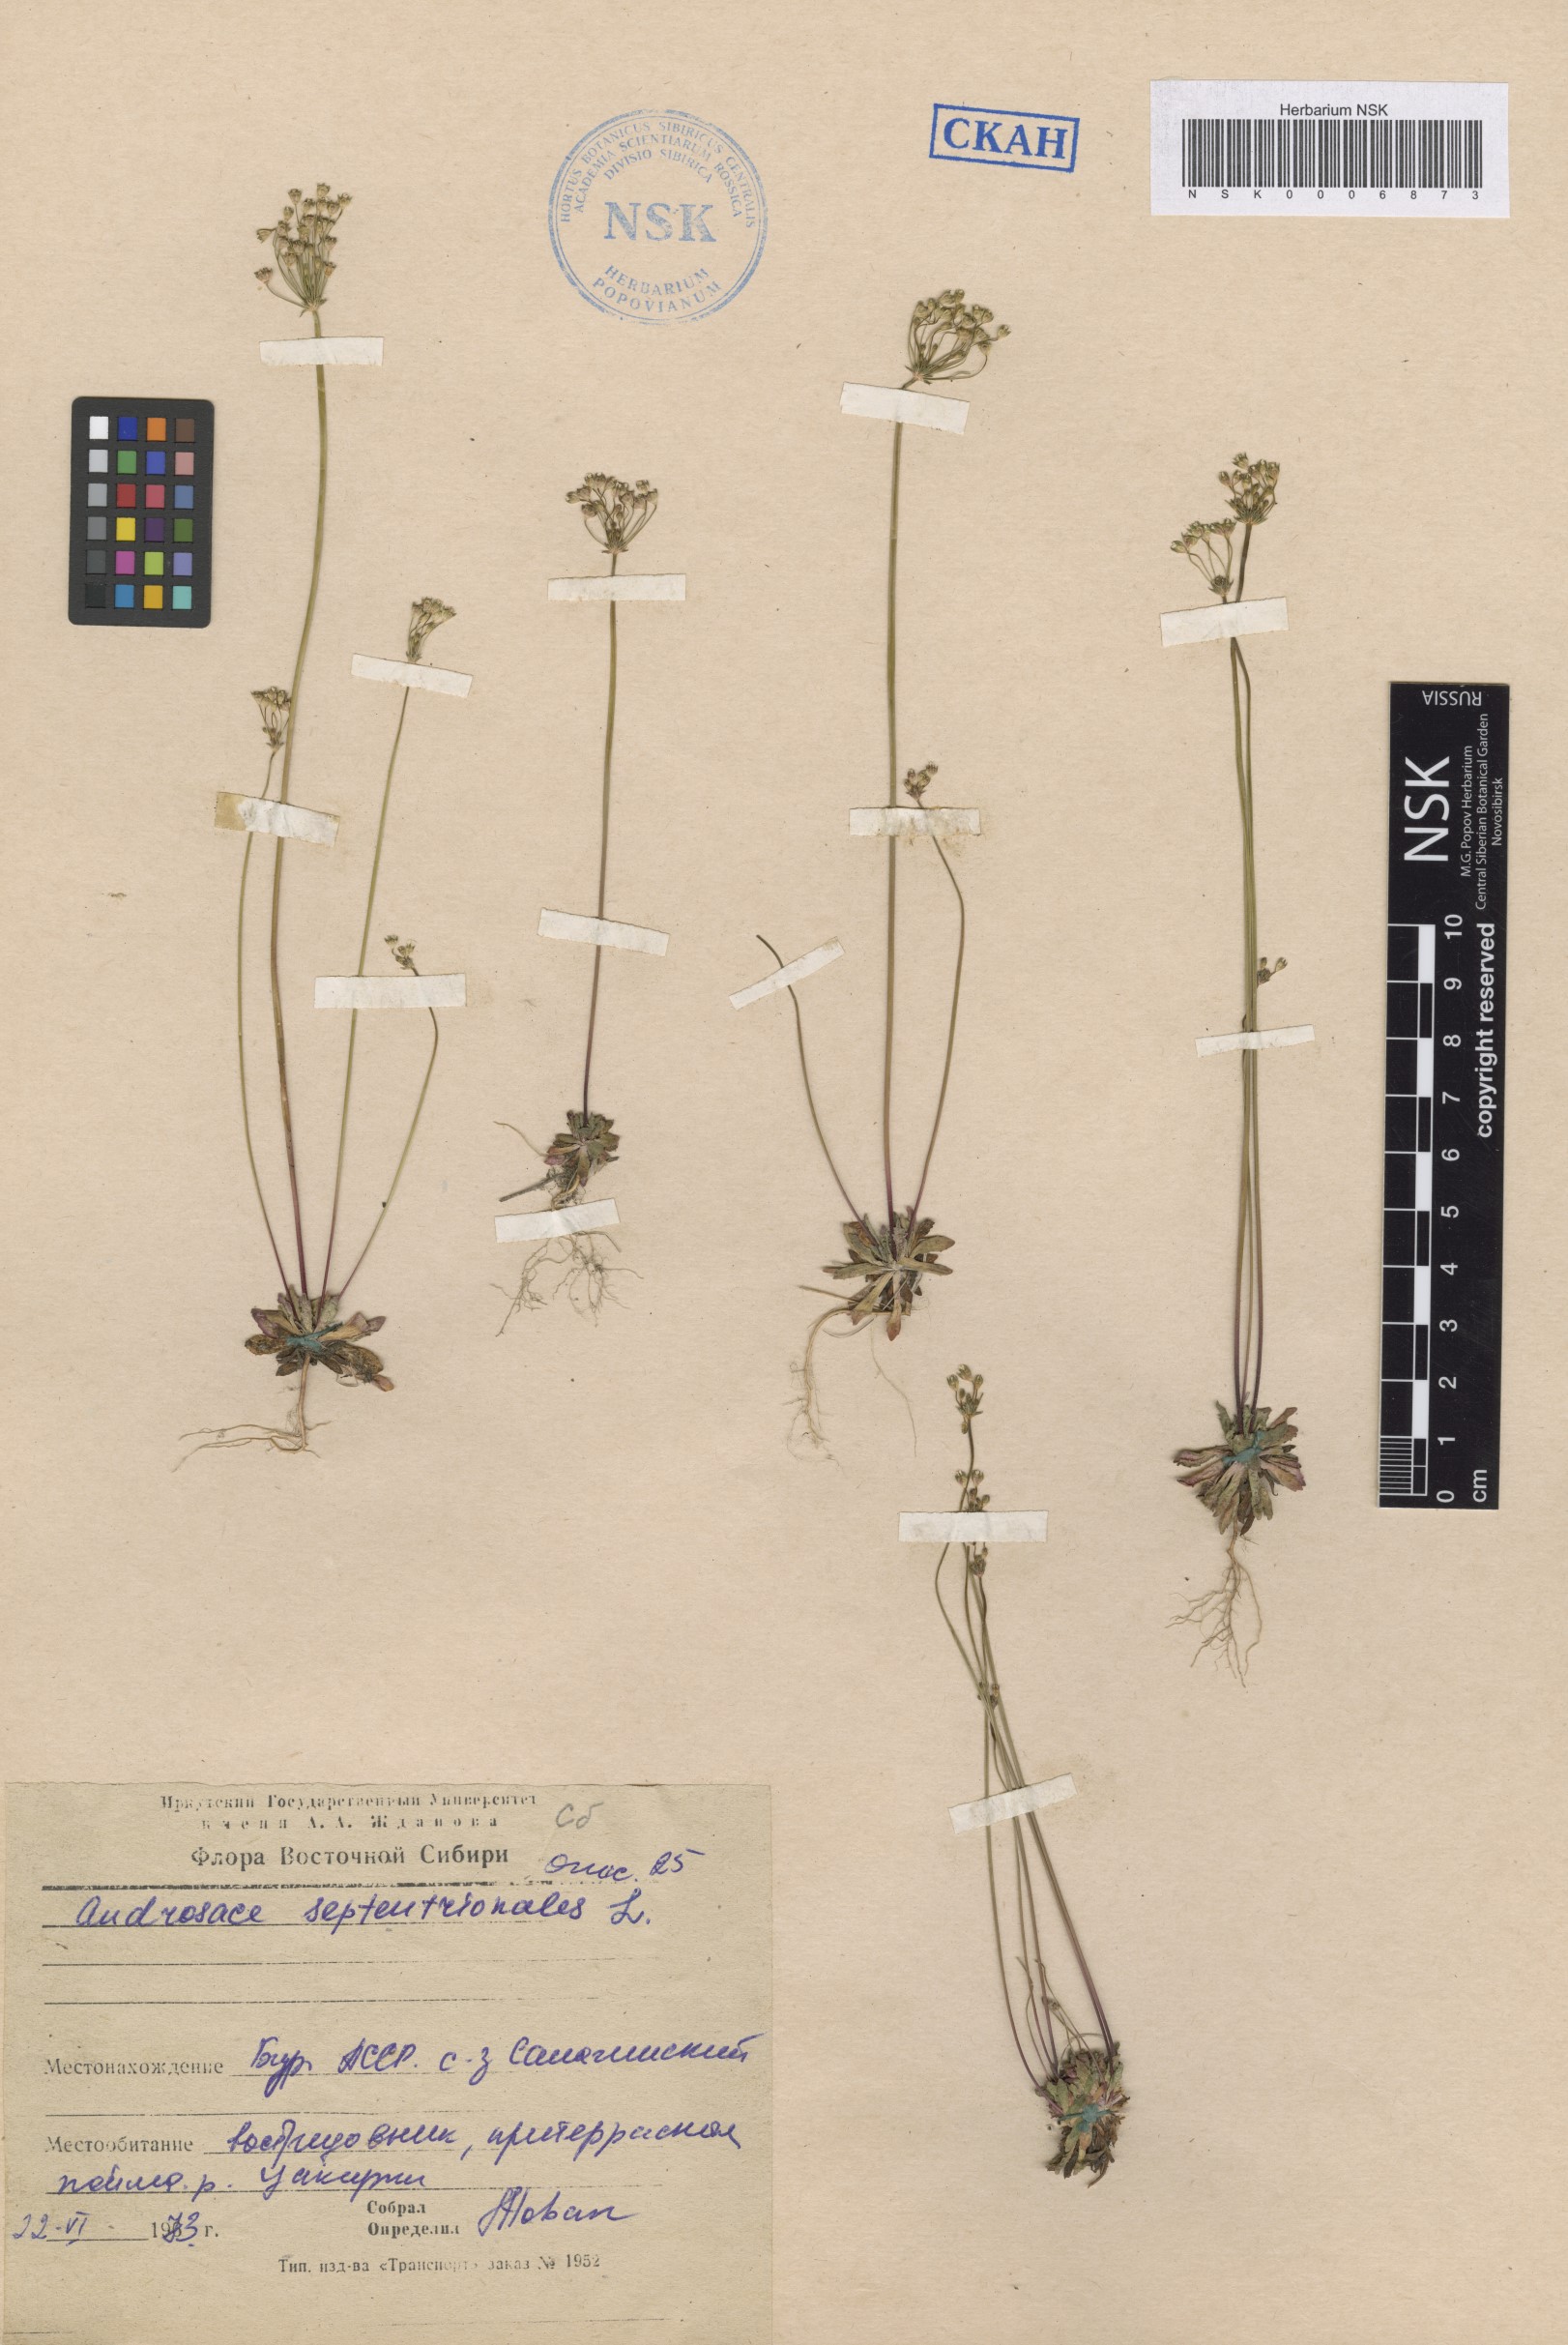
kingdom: Plantae
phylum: Tracheophyta
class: Magnoliopsida
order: Ericales
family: Primulaceae
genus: Androsace
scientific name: Androsace septentrionalis
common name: Hairy northern fairy-candelabra
